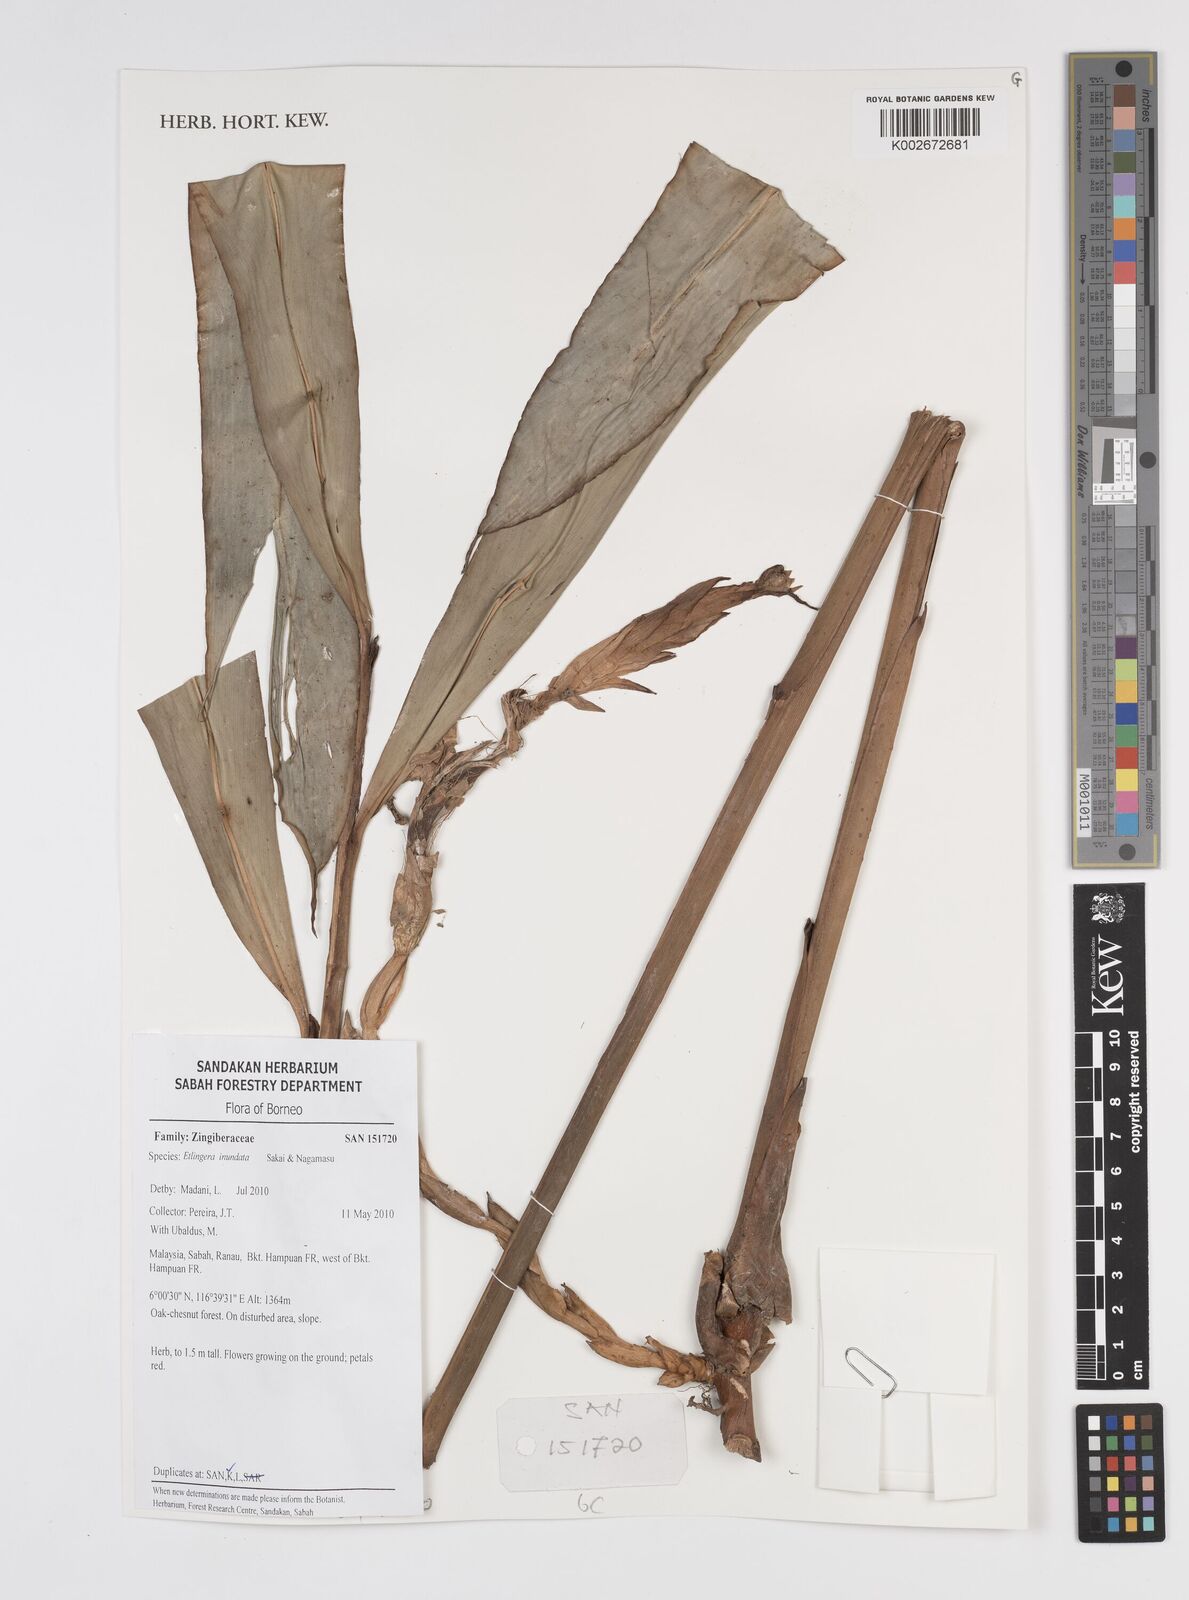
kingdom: Plantae
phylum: Tracheophyta
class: Liliopsida
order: Zingiberales
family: Zingiberaceae
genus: Etlingera
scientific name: Etlingera inundata
